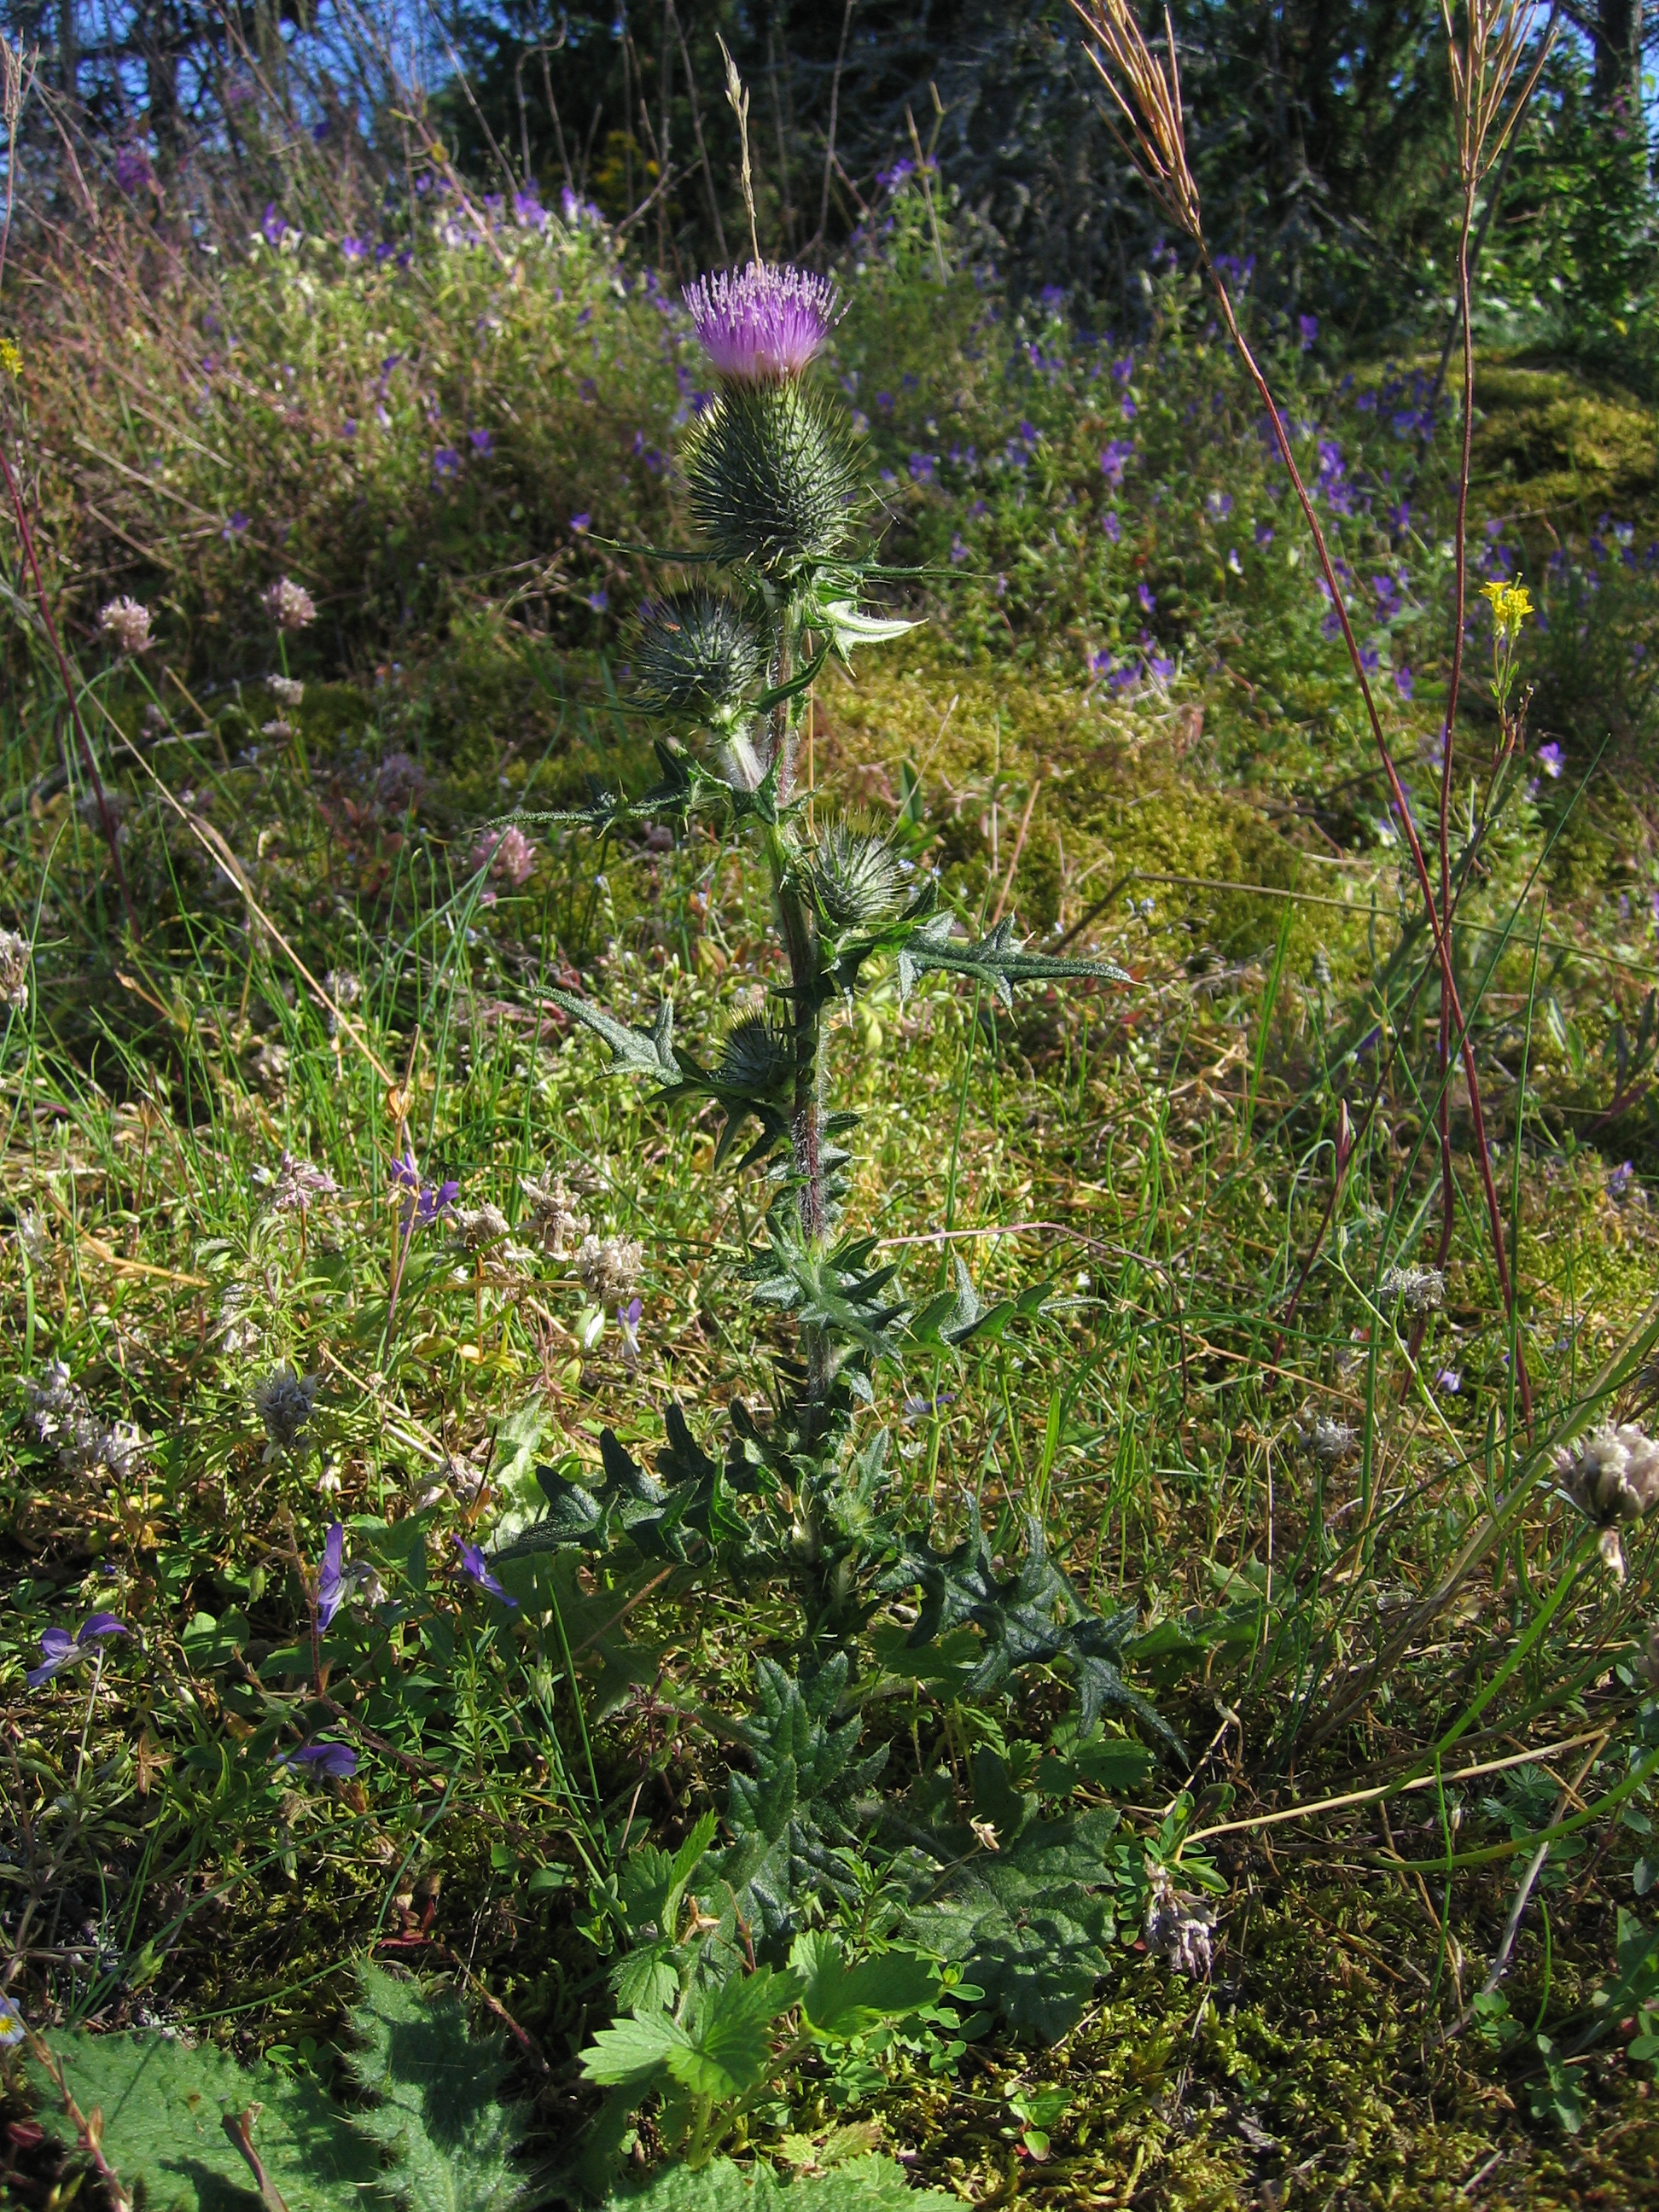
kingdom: Plantae
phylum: Tracheophyta
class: Magnoliopsida
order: Asterales
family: Asteraceae
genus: Cirsium
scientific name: Cirsium vulgare
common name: Bull thistle
